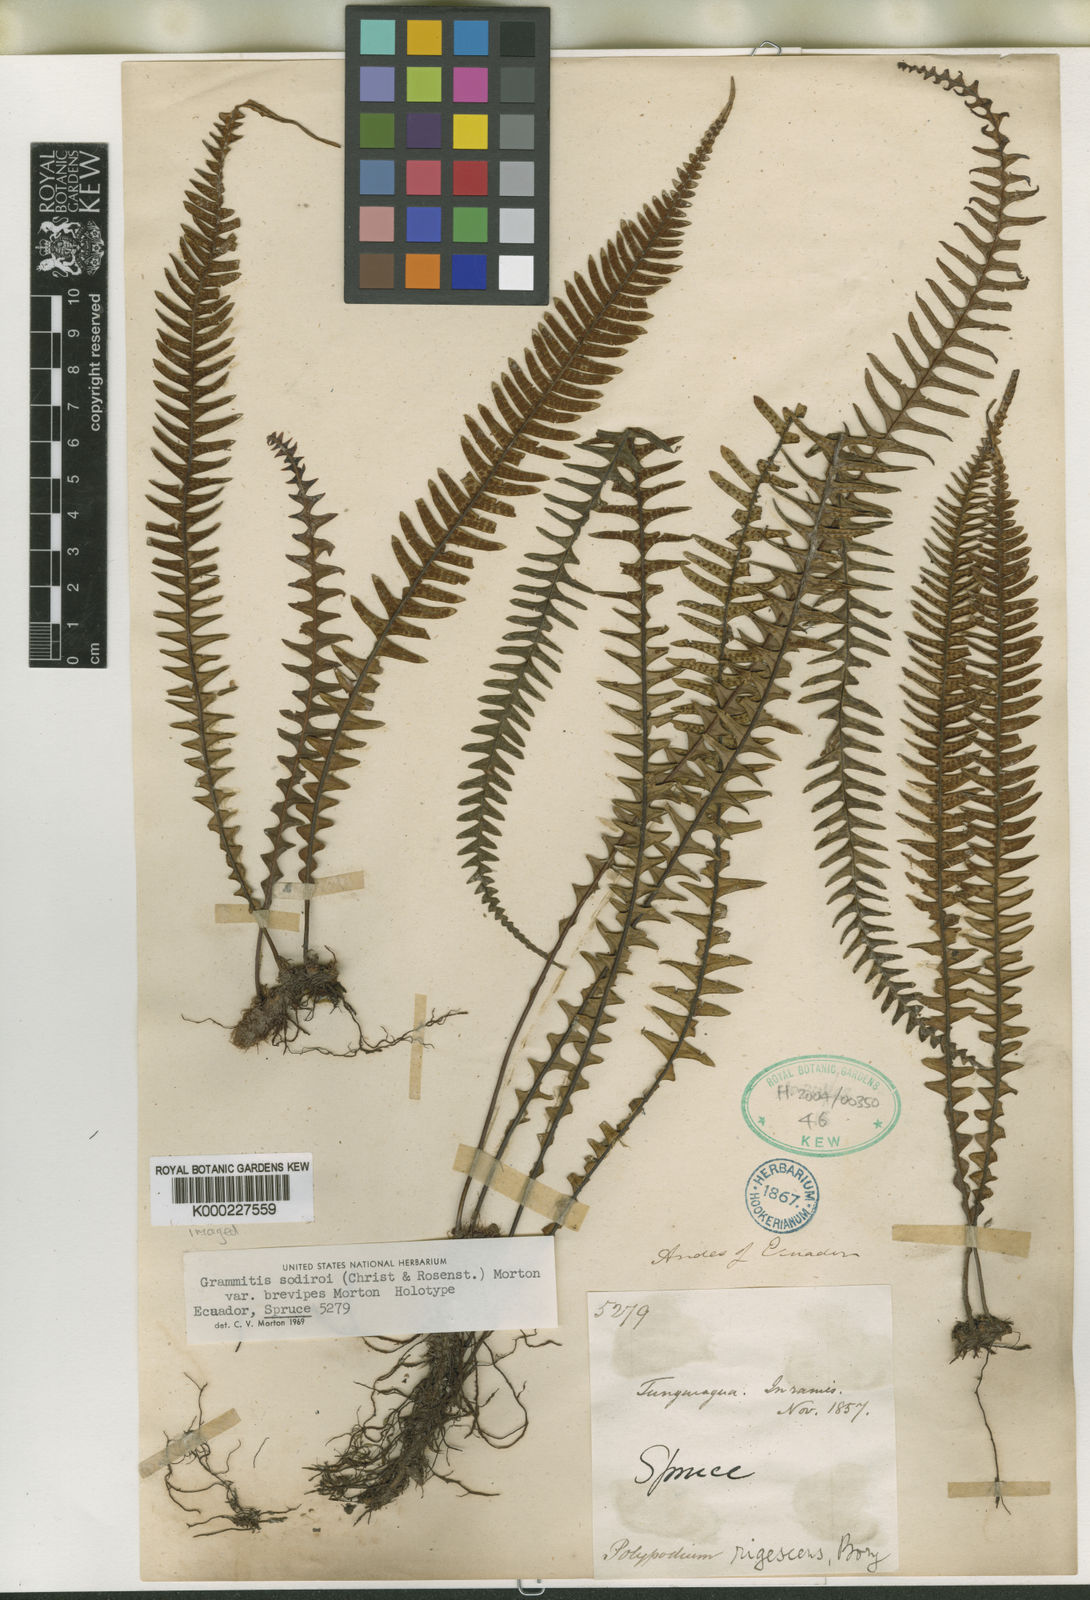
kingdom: Plantae
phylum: Tracheophyta
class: Polypodiopsida
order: Polypodiales
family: Polypodiaceae
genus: Melpomene
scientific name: Melpomene pseudonutans
